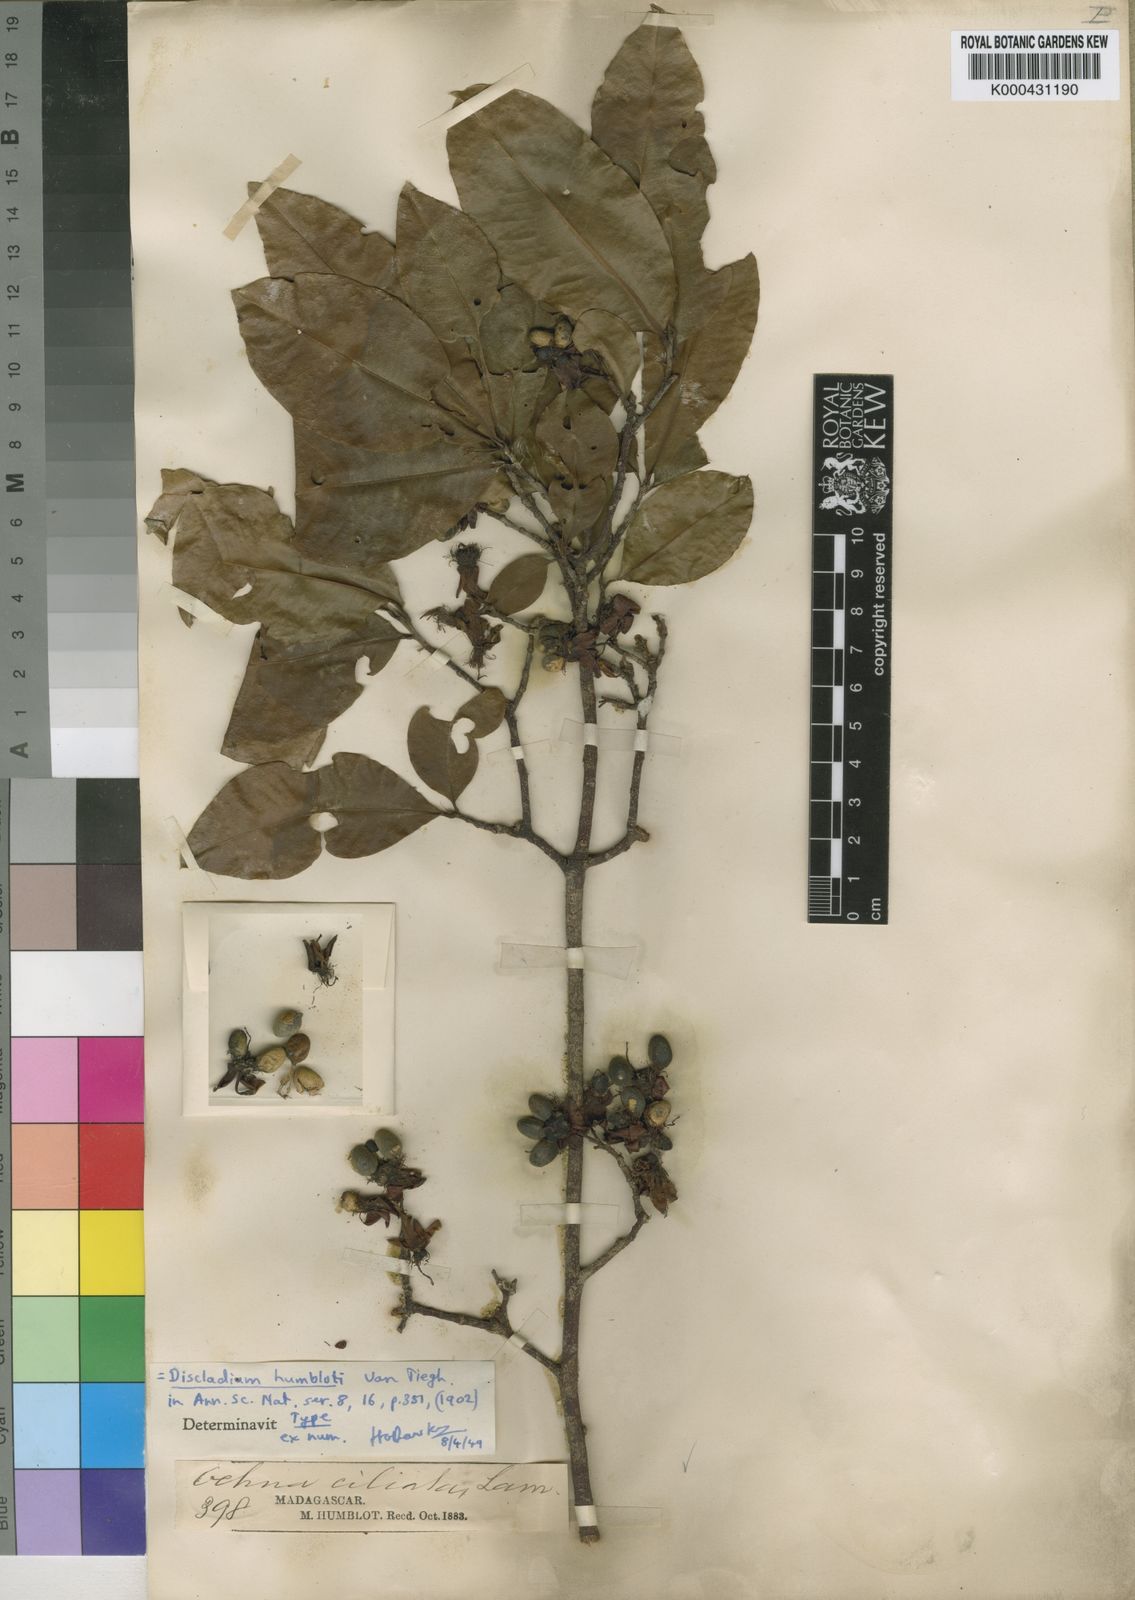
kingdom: Plantae
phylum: Tracheophyta
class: Magnoliopsida
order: Malpighiales
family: Ochnaceae
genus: Campylospermum
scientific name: Campylospermum humblotii
